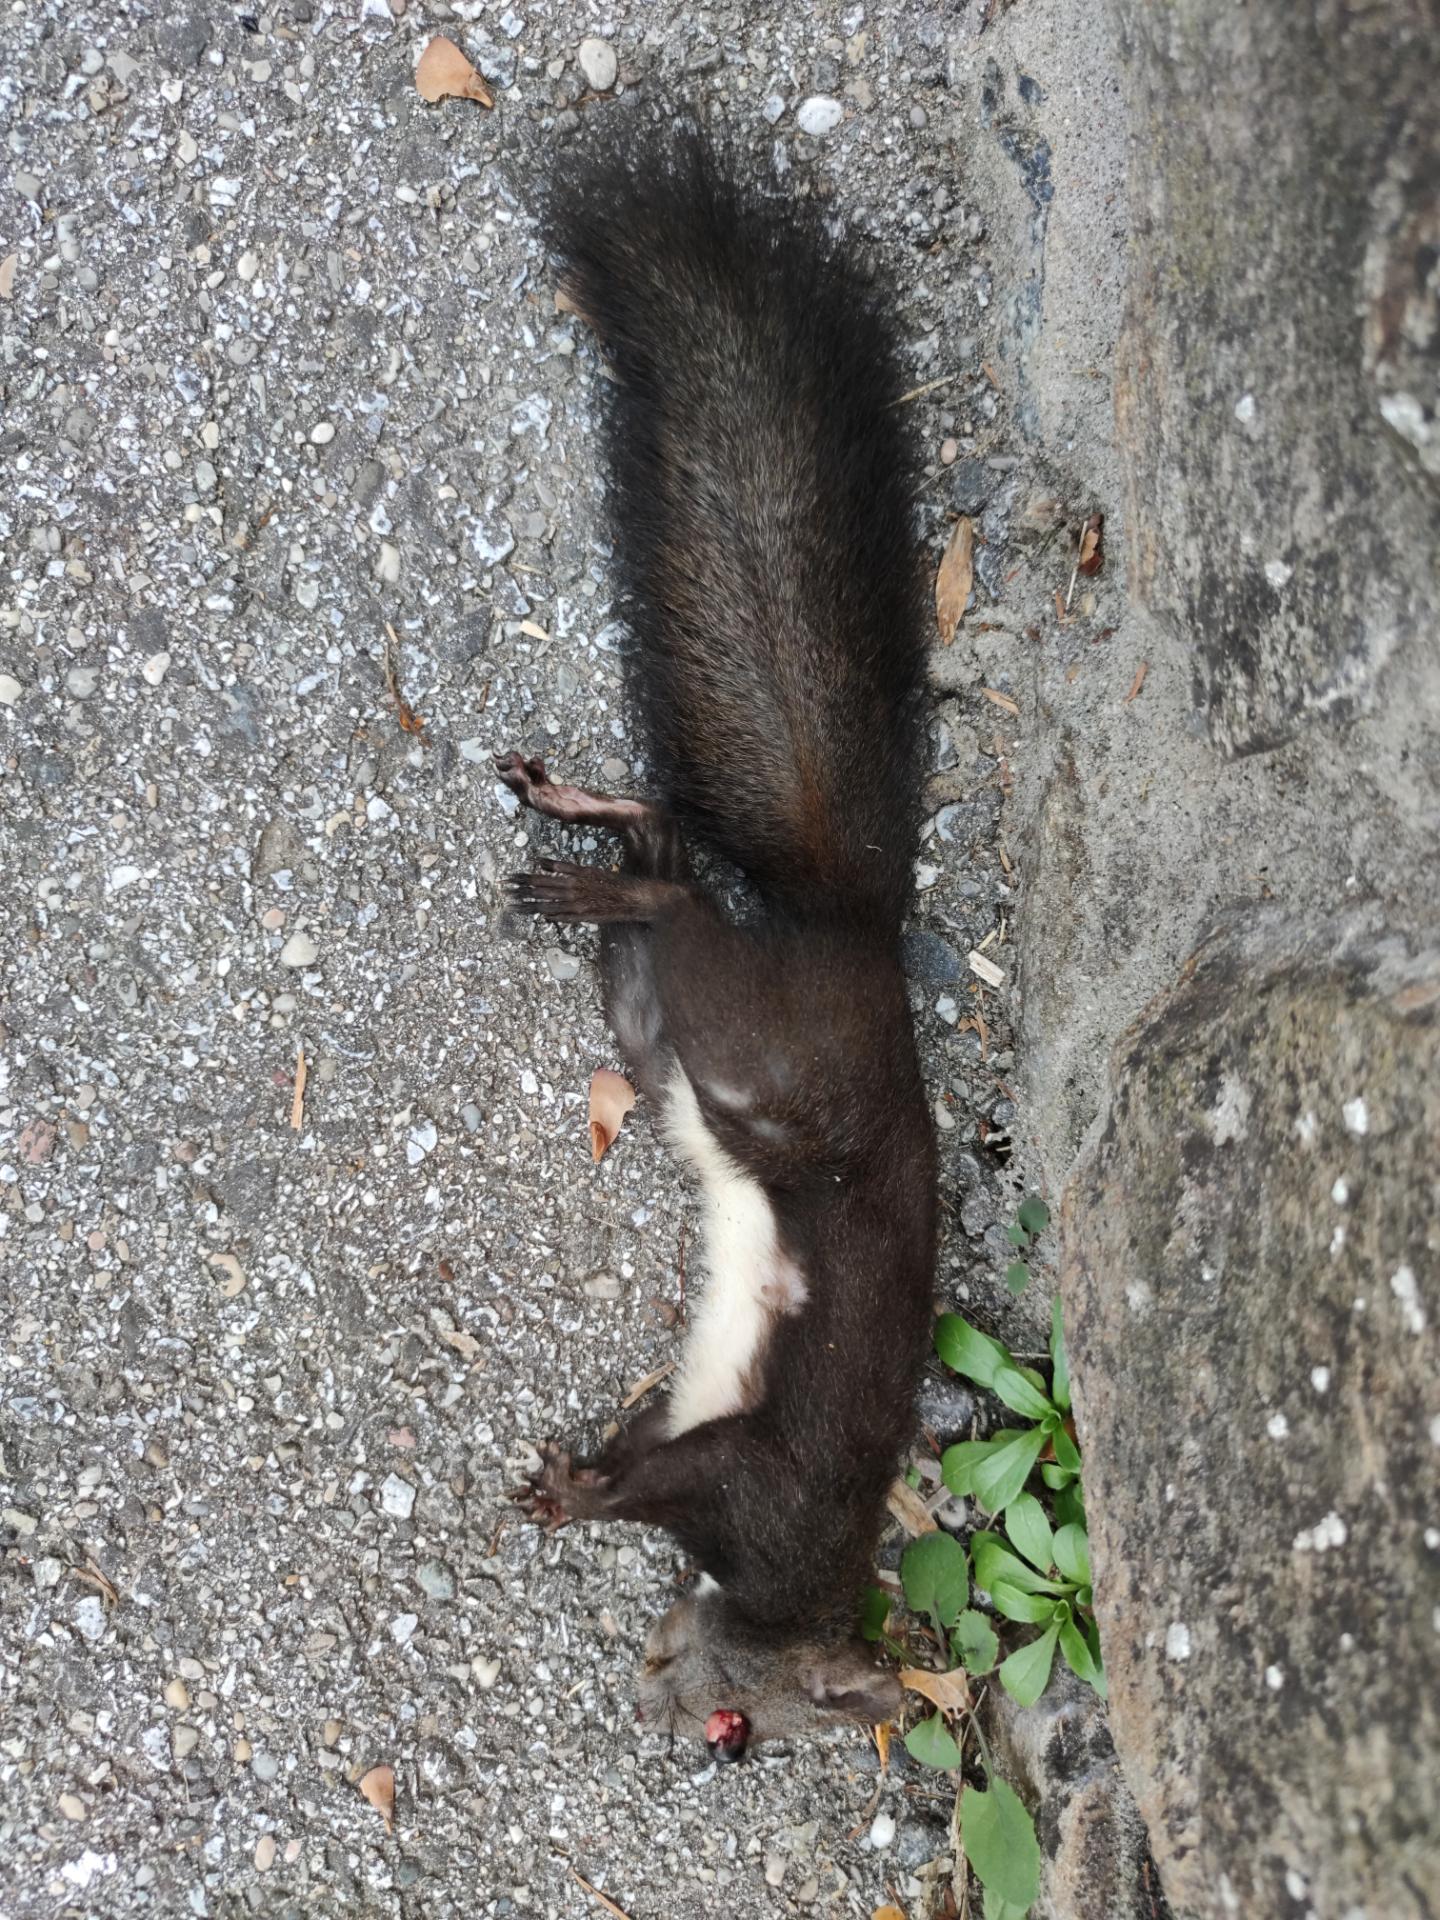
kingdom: Animalia
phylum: Chordata
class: Mammalia
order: Rodentia
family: Sciuridae
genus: Sciurus
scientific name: Sciurus vulgaris
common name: Eurasian red squirrel
